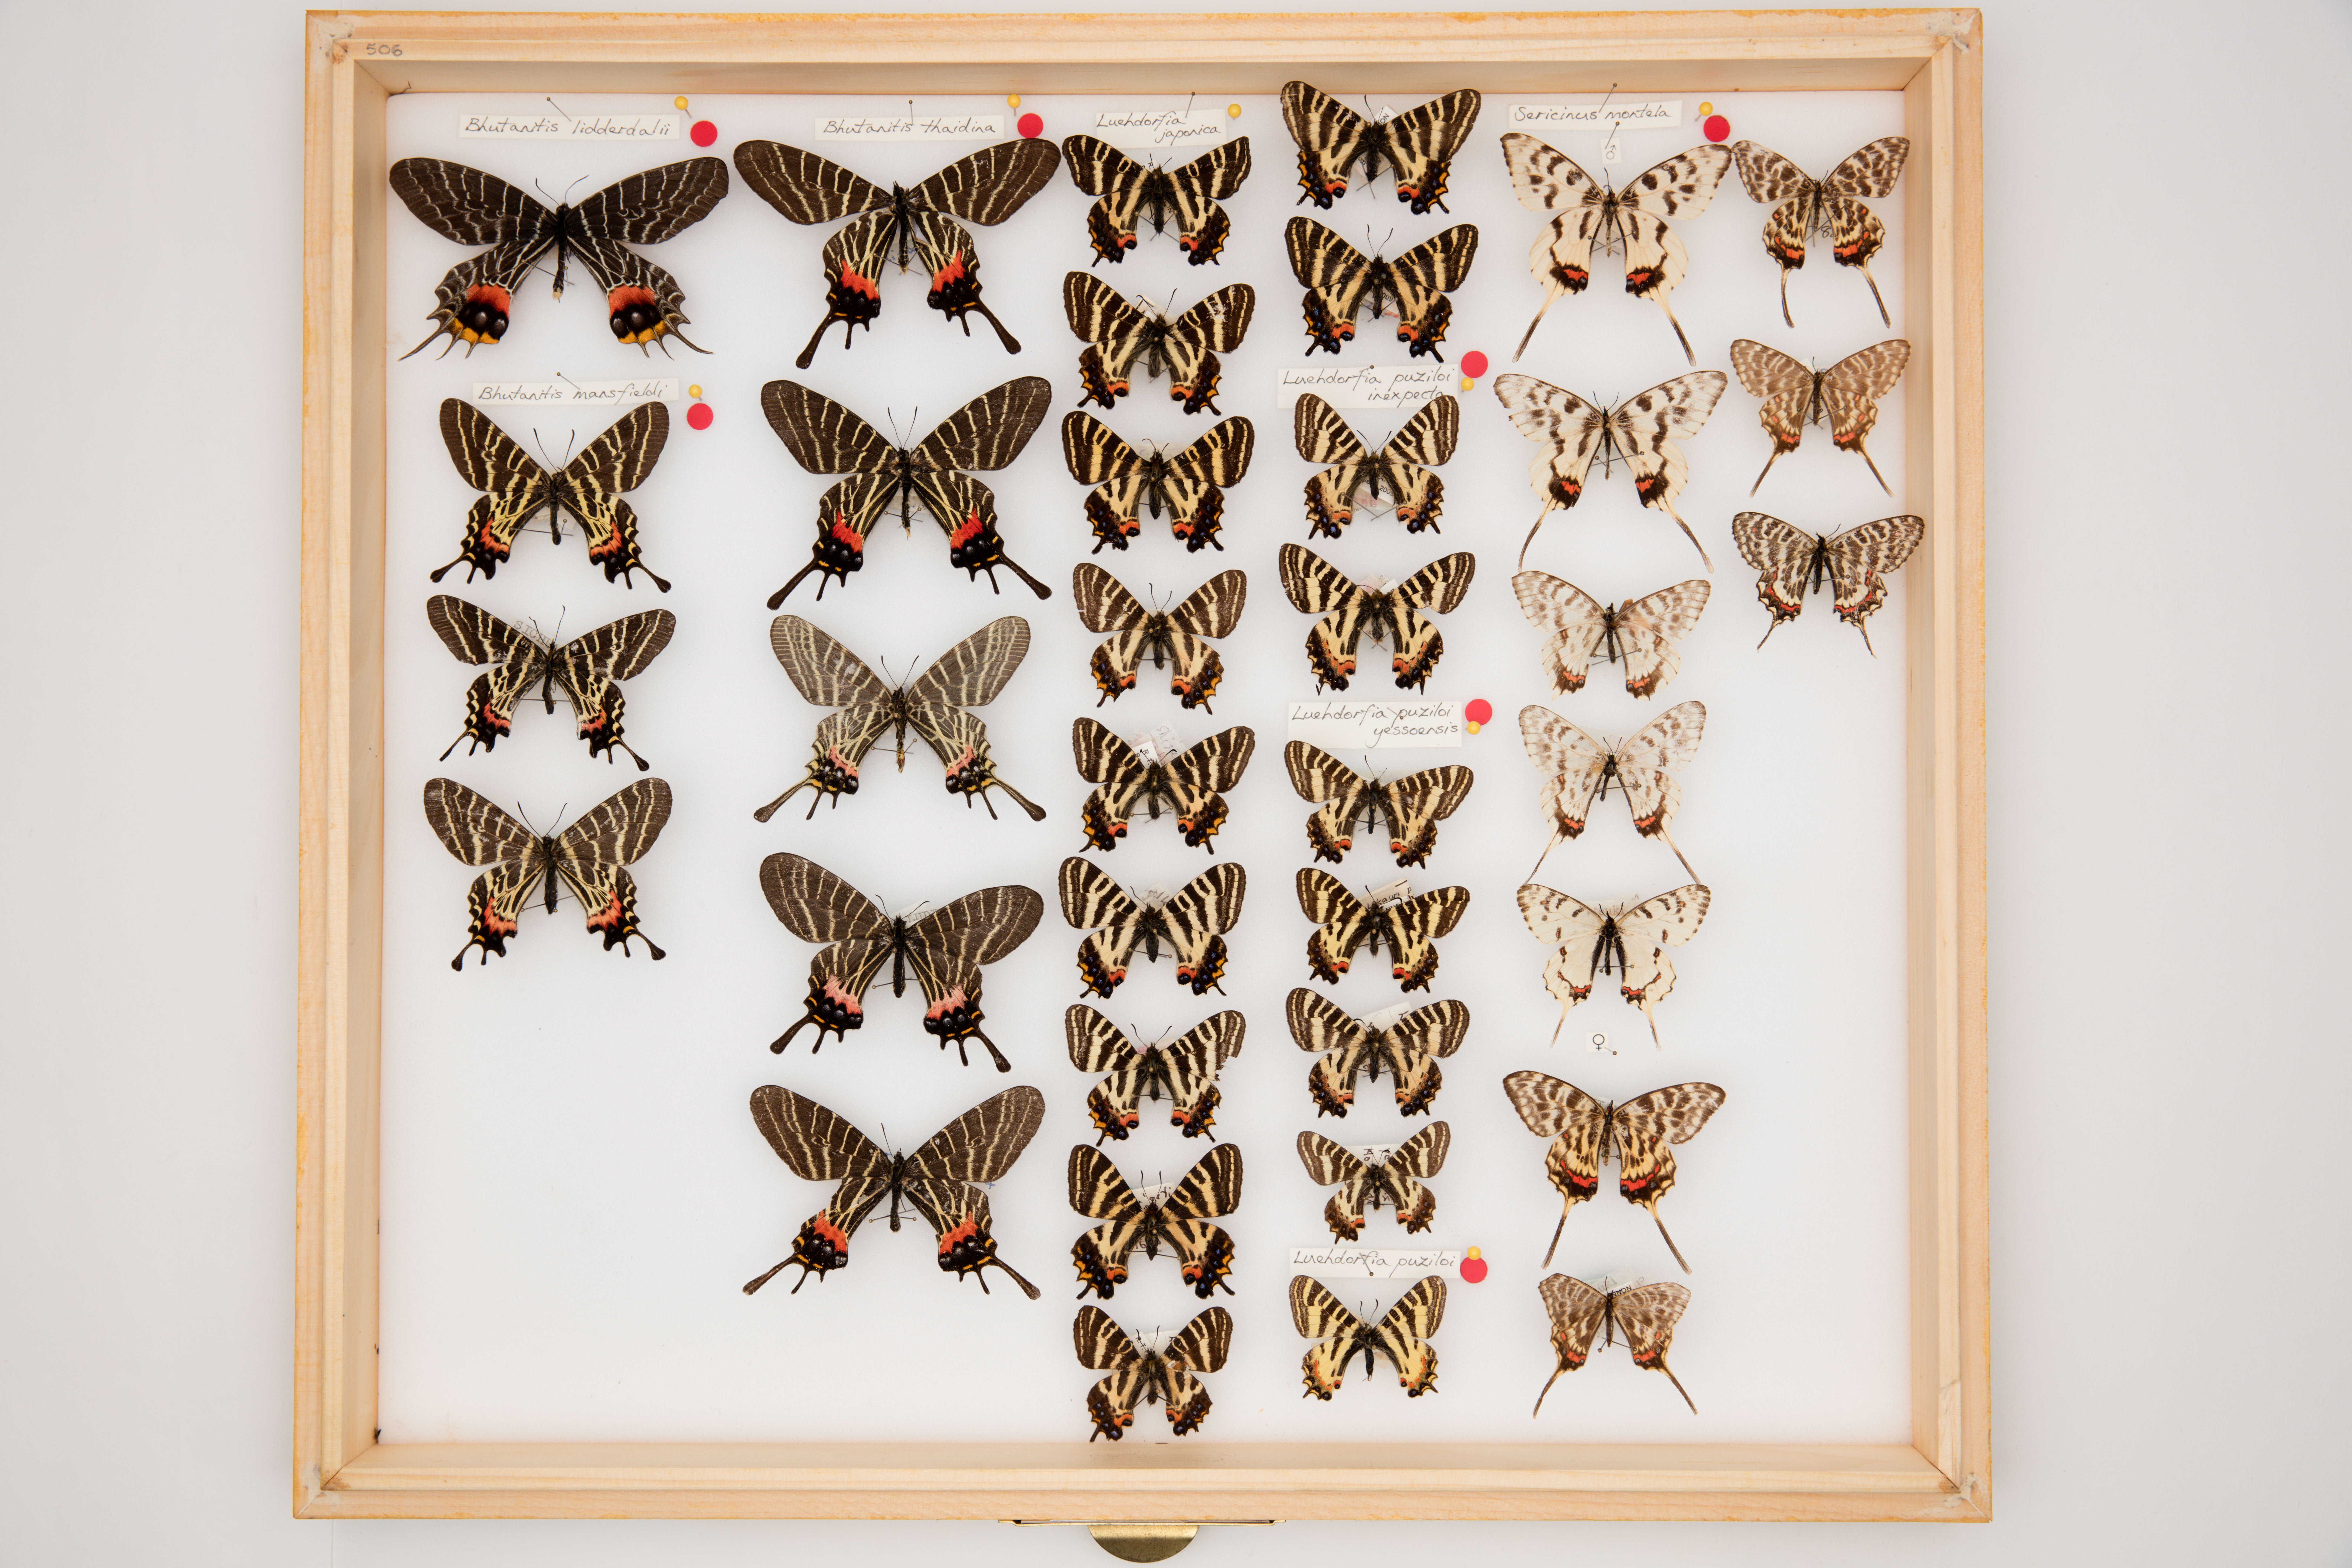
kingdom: Animalia
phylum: Arthropoda
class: Insecta
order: Lepidoptera
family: Papilionidae
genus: Bhutanitis
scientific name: Bhutanitis thaidina
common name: Chinese three-tailed swallowtail
